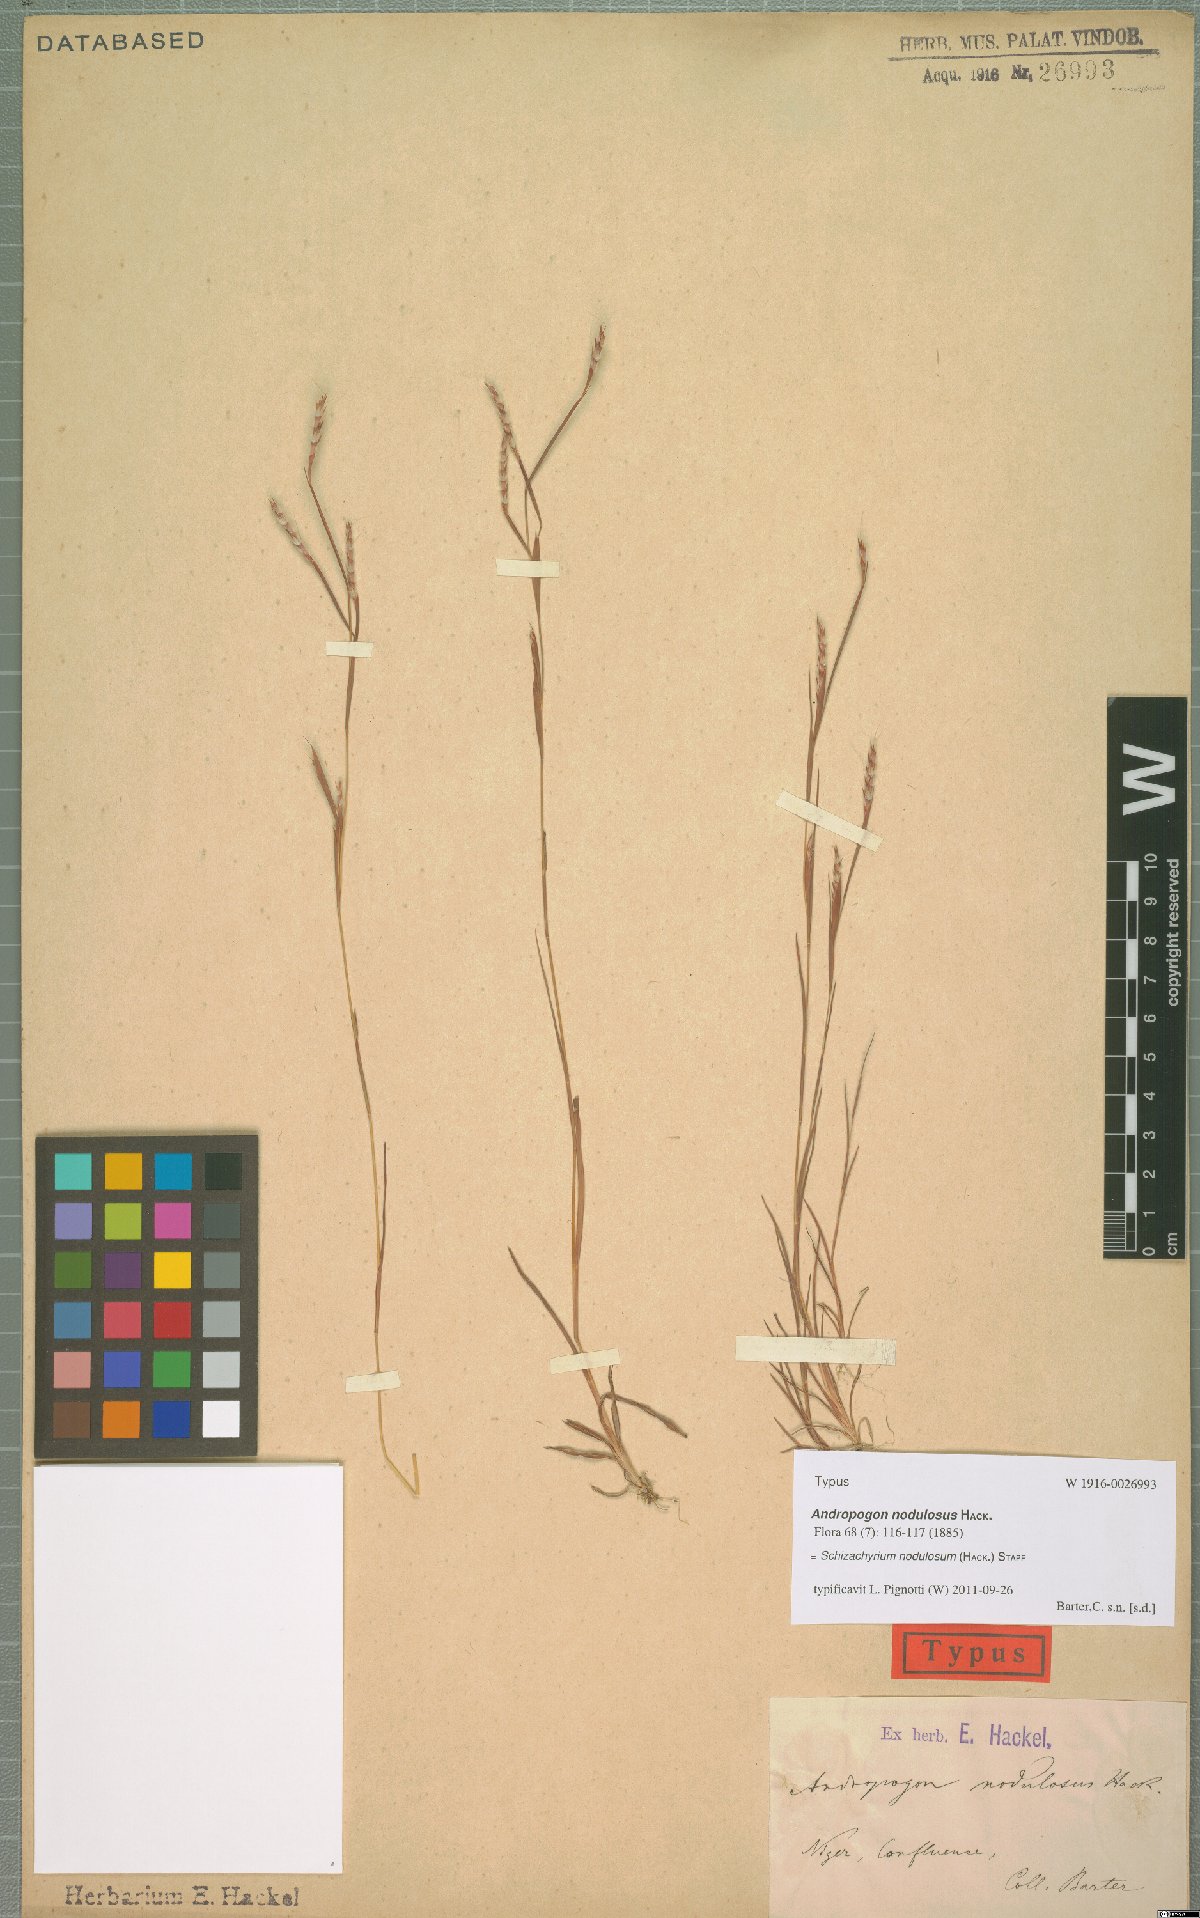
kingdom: Plantae
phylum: Tracheophyta
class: Liliopsida
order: Poales
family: Poaceae
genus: Schizachyrium
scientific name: Schizachyrium nodulosum
